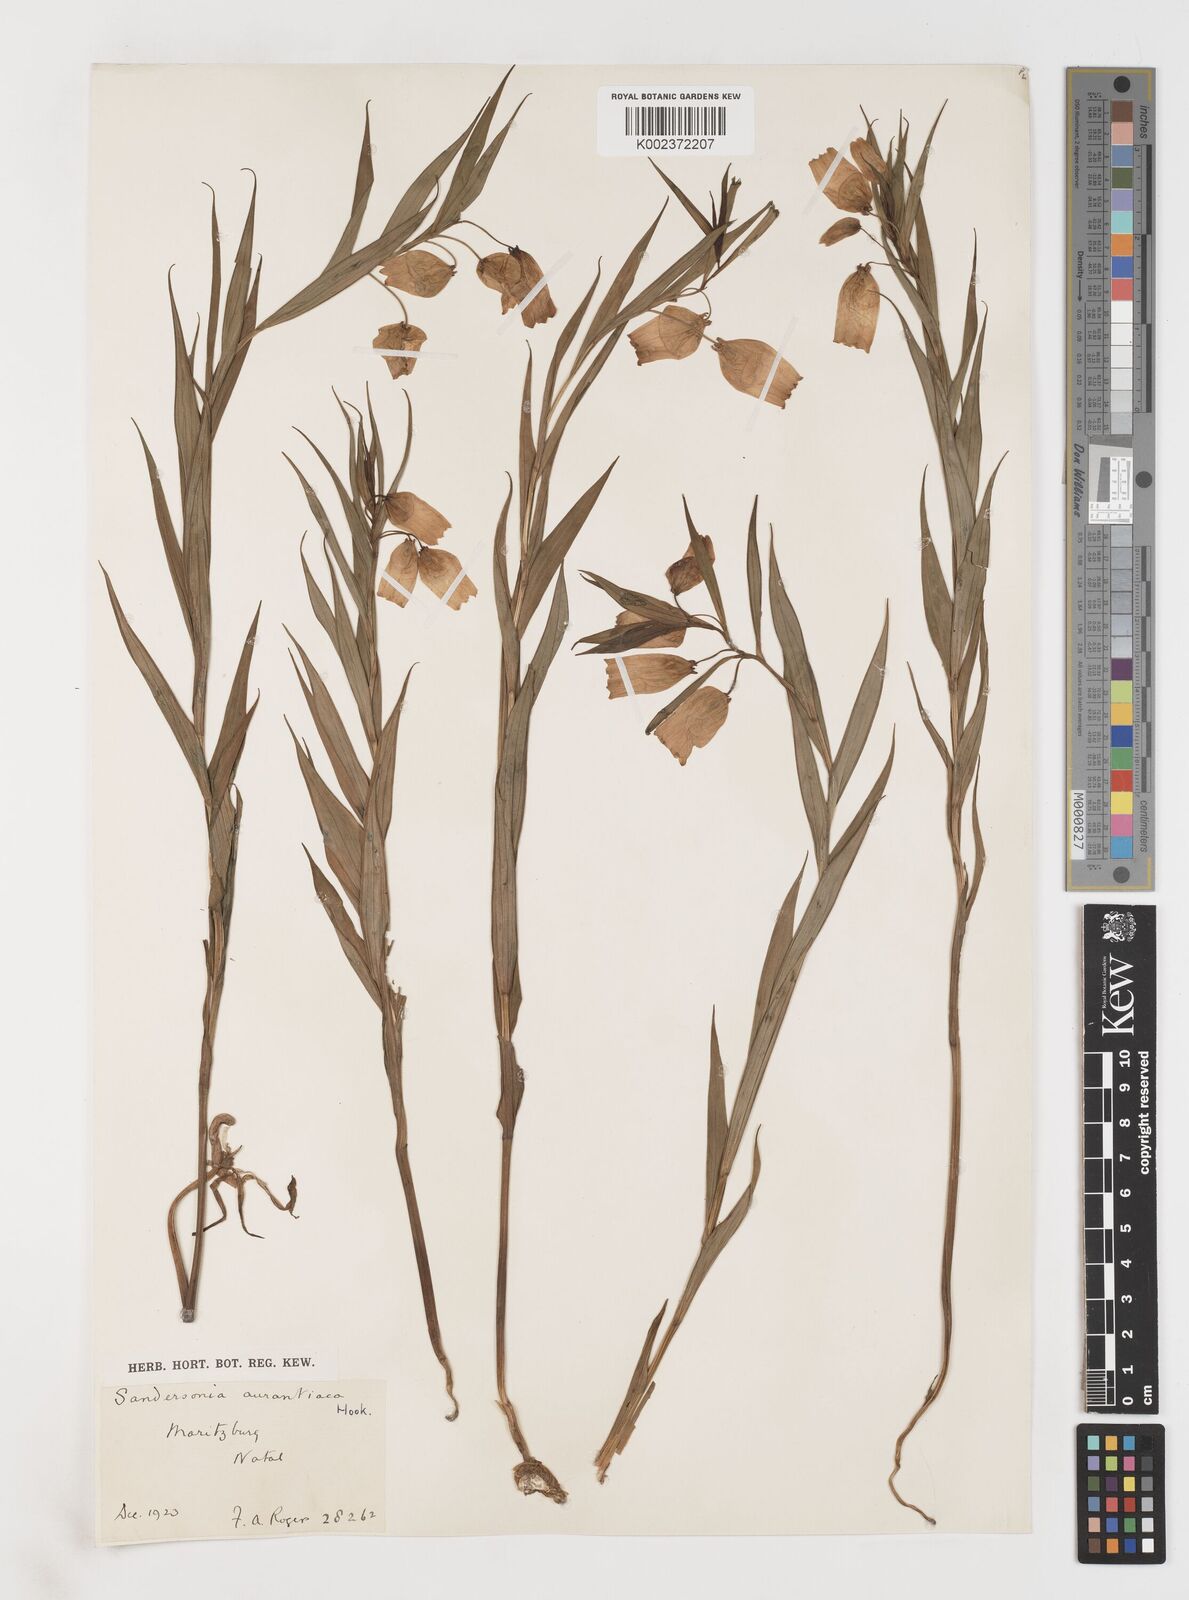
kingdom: Plantae
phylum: Tracheophyta
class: Liliopsida
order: Liliales
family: Colchicaceae
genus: Sandersonia
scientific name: Sandersonia aurantiaca
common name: Chinese-lantern-lily
